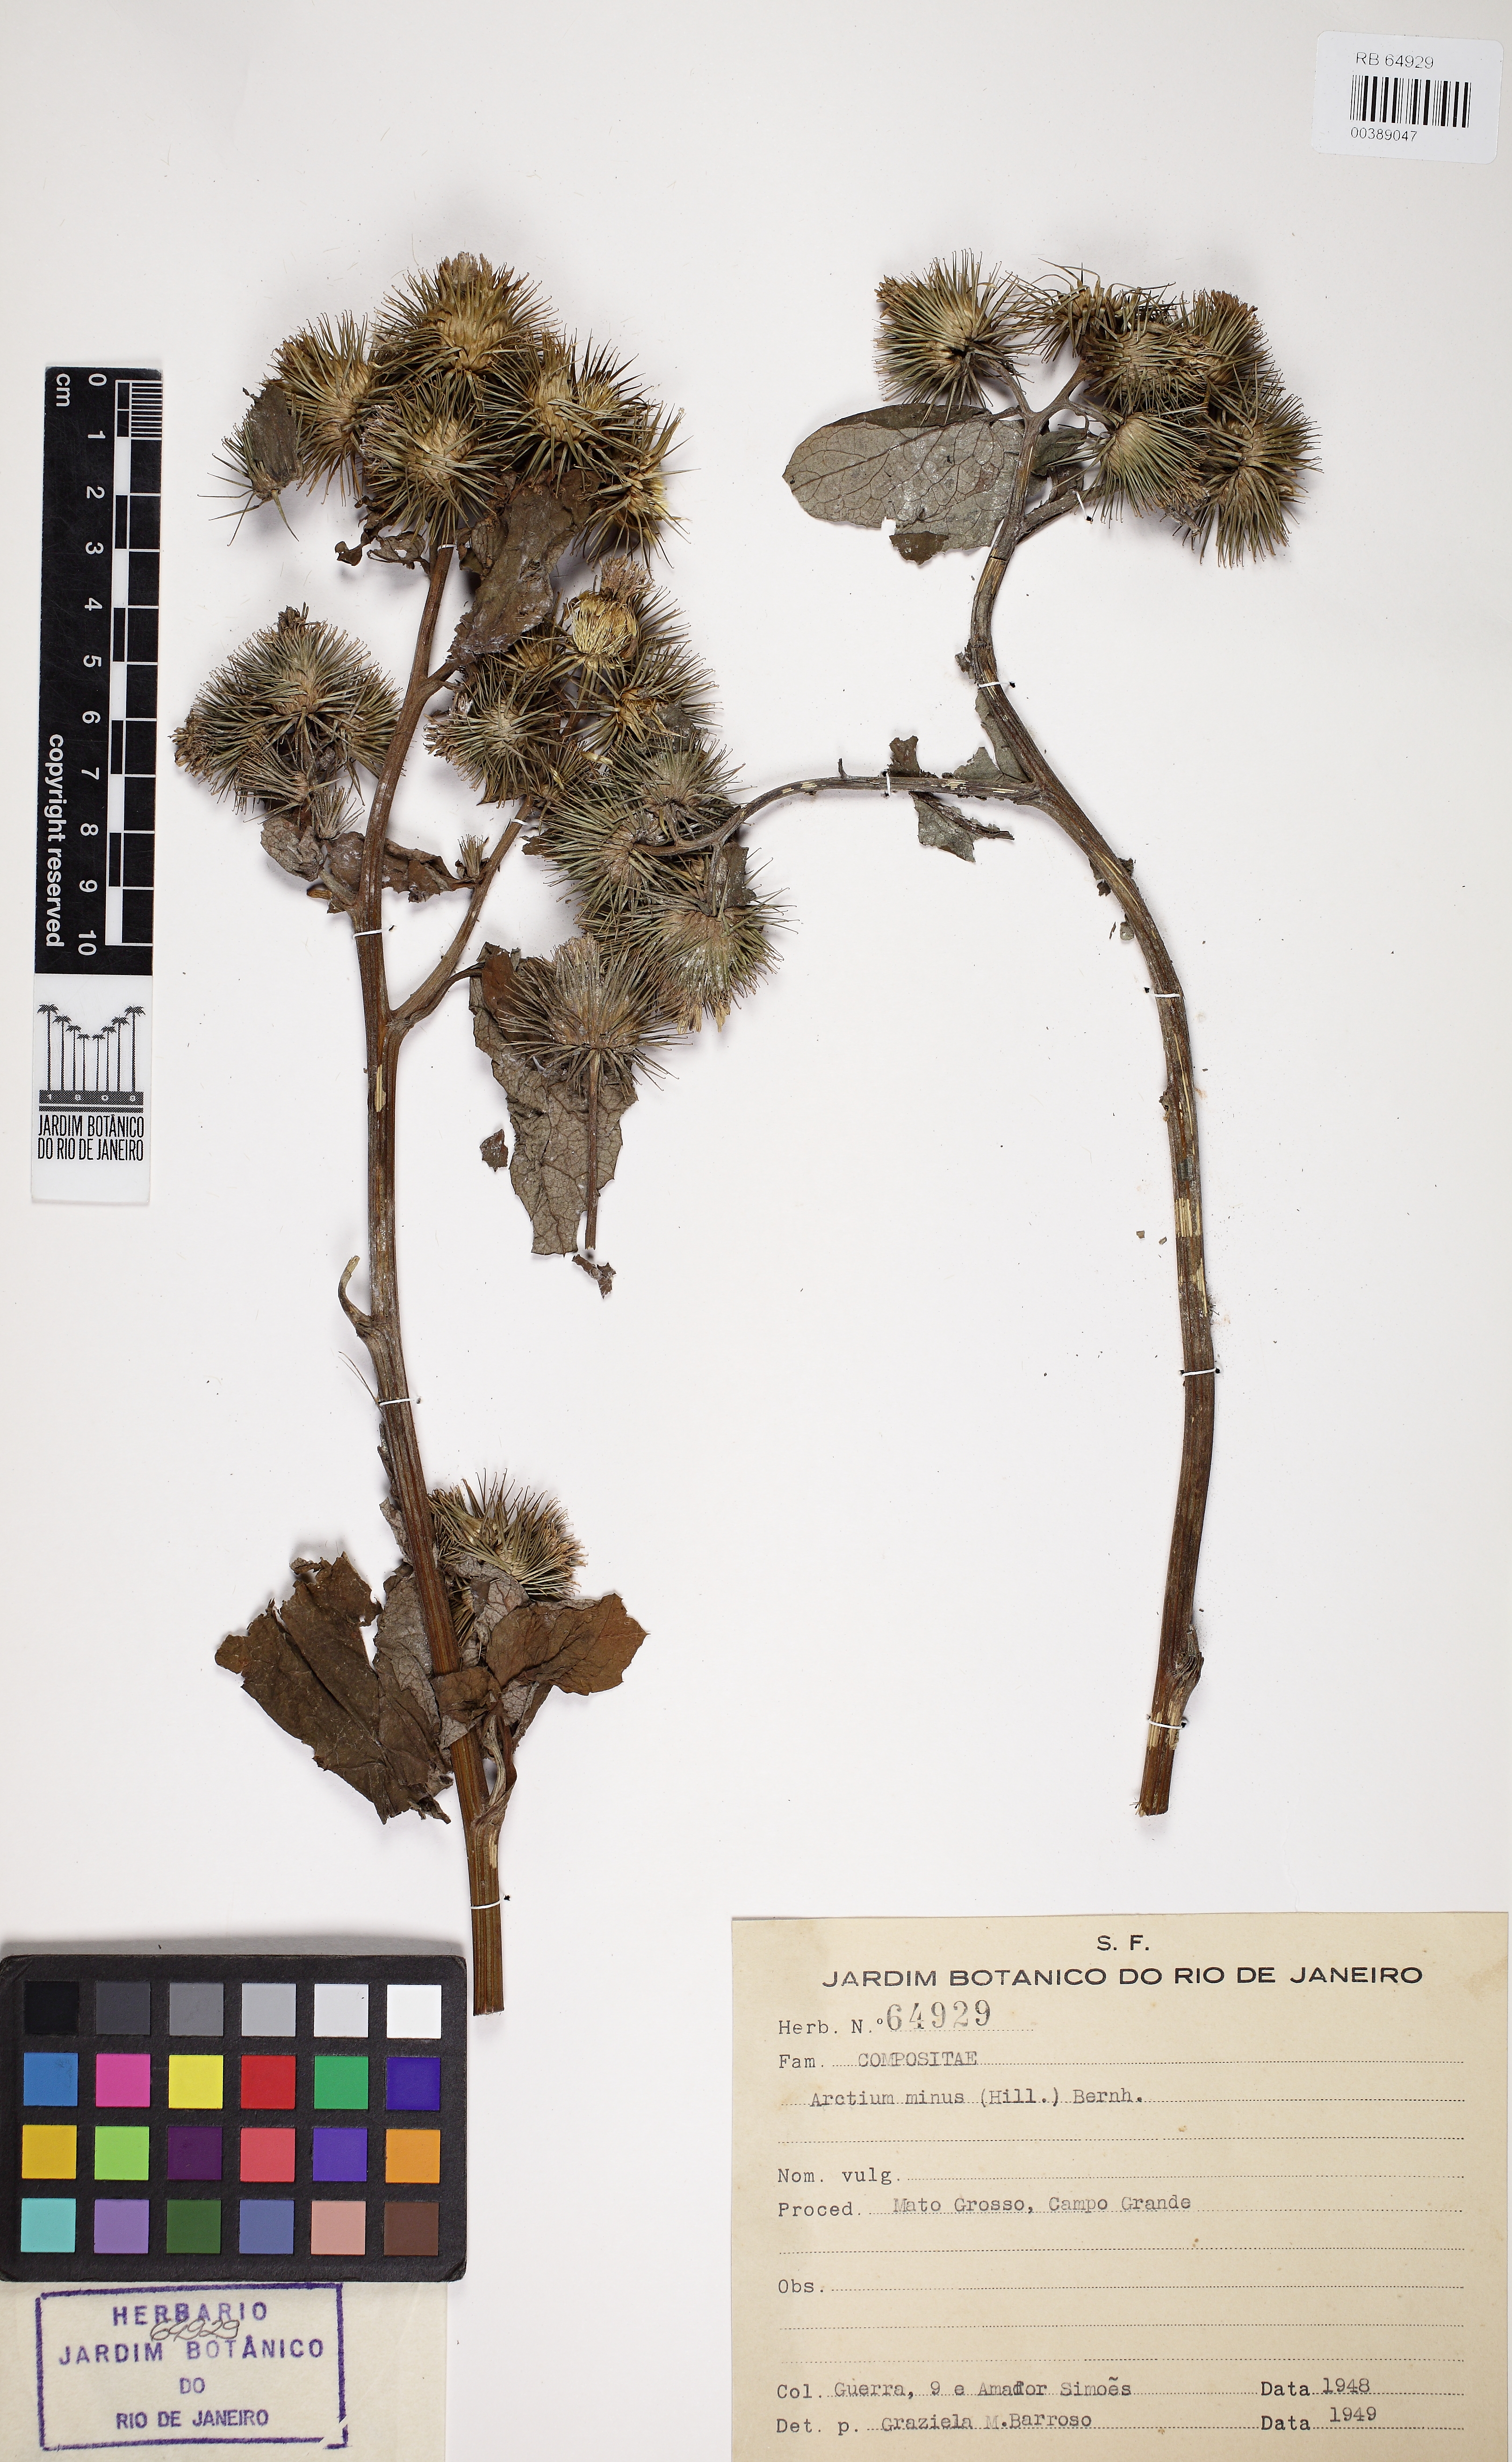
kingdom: Plantae
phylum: Tracheophyta
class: Magnoliopsida
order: Asterales
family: Asteraceae
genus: Arctium
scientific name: Arctium minus
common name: Lesser burdock
